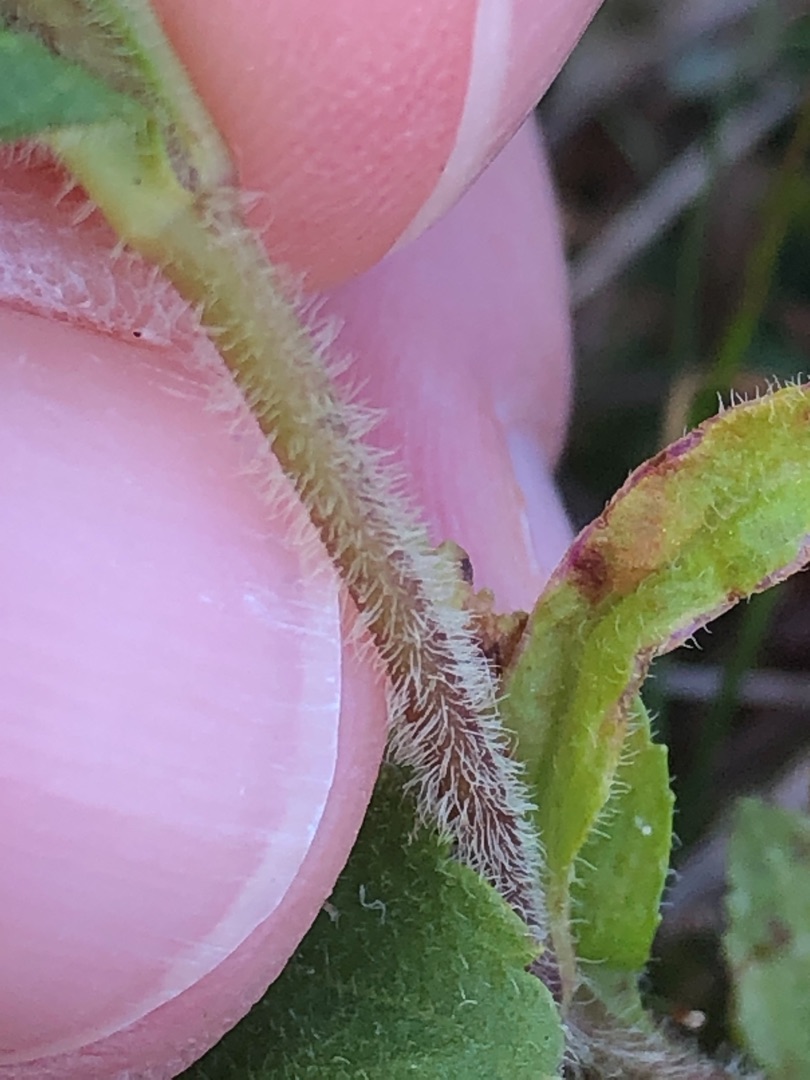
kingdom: Plantae
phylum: Tracheophyta
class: Magnoliopsida
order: Lamiales
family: Plantaginaceae
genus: Veronica
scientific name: Veronica officinalis
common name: Læge-ærenpris
